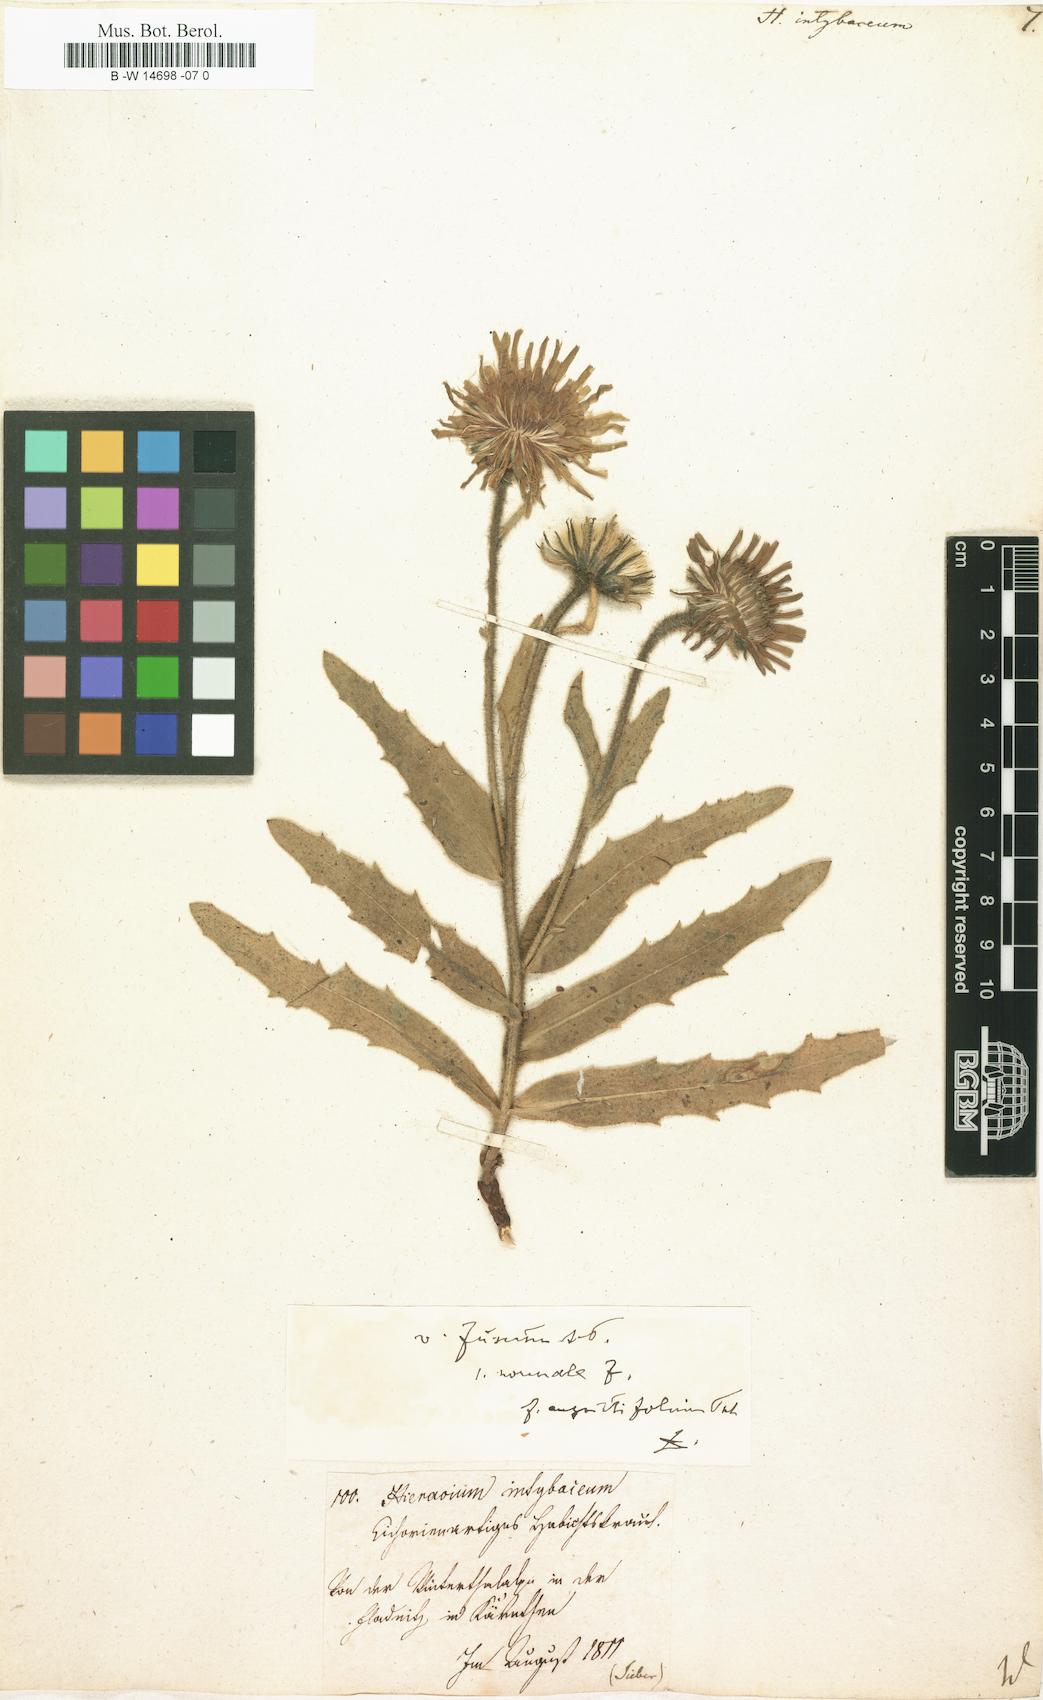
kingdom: Plantae
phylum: Tracheophyta
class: Magnoliopsida
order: Asterales
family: Asteraceae
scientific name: Asteraceae
